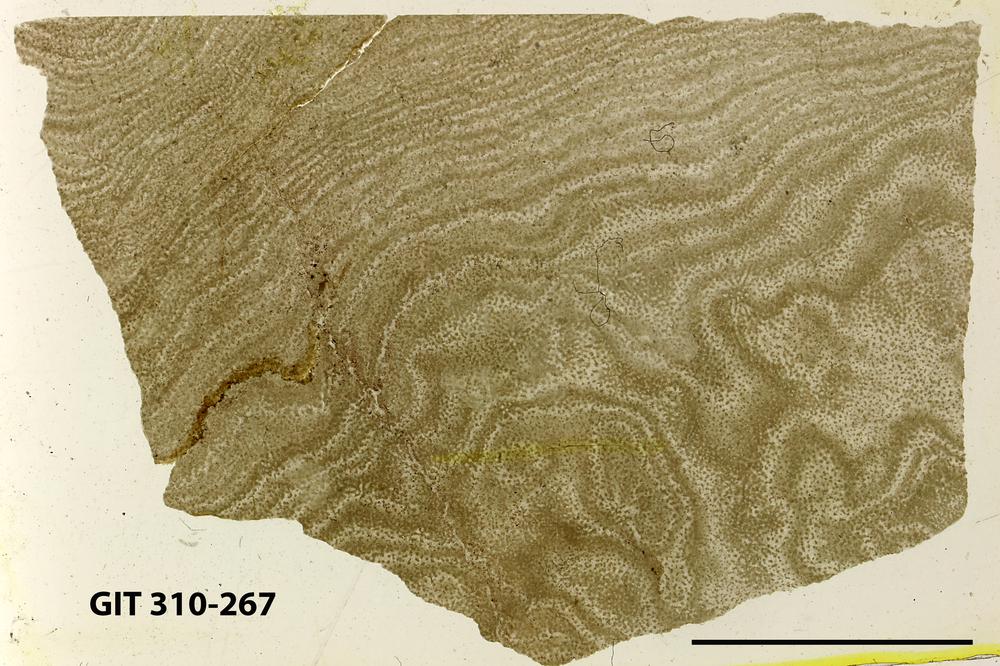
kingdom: Animalia
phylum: Porifera
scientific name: Porifera
